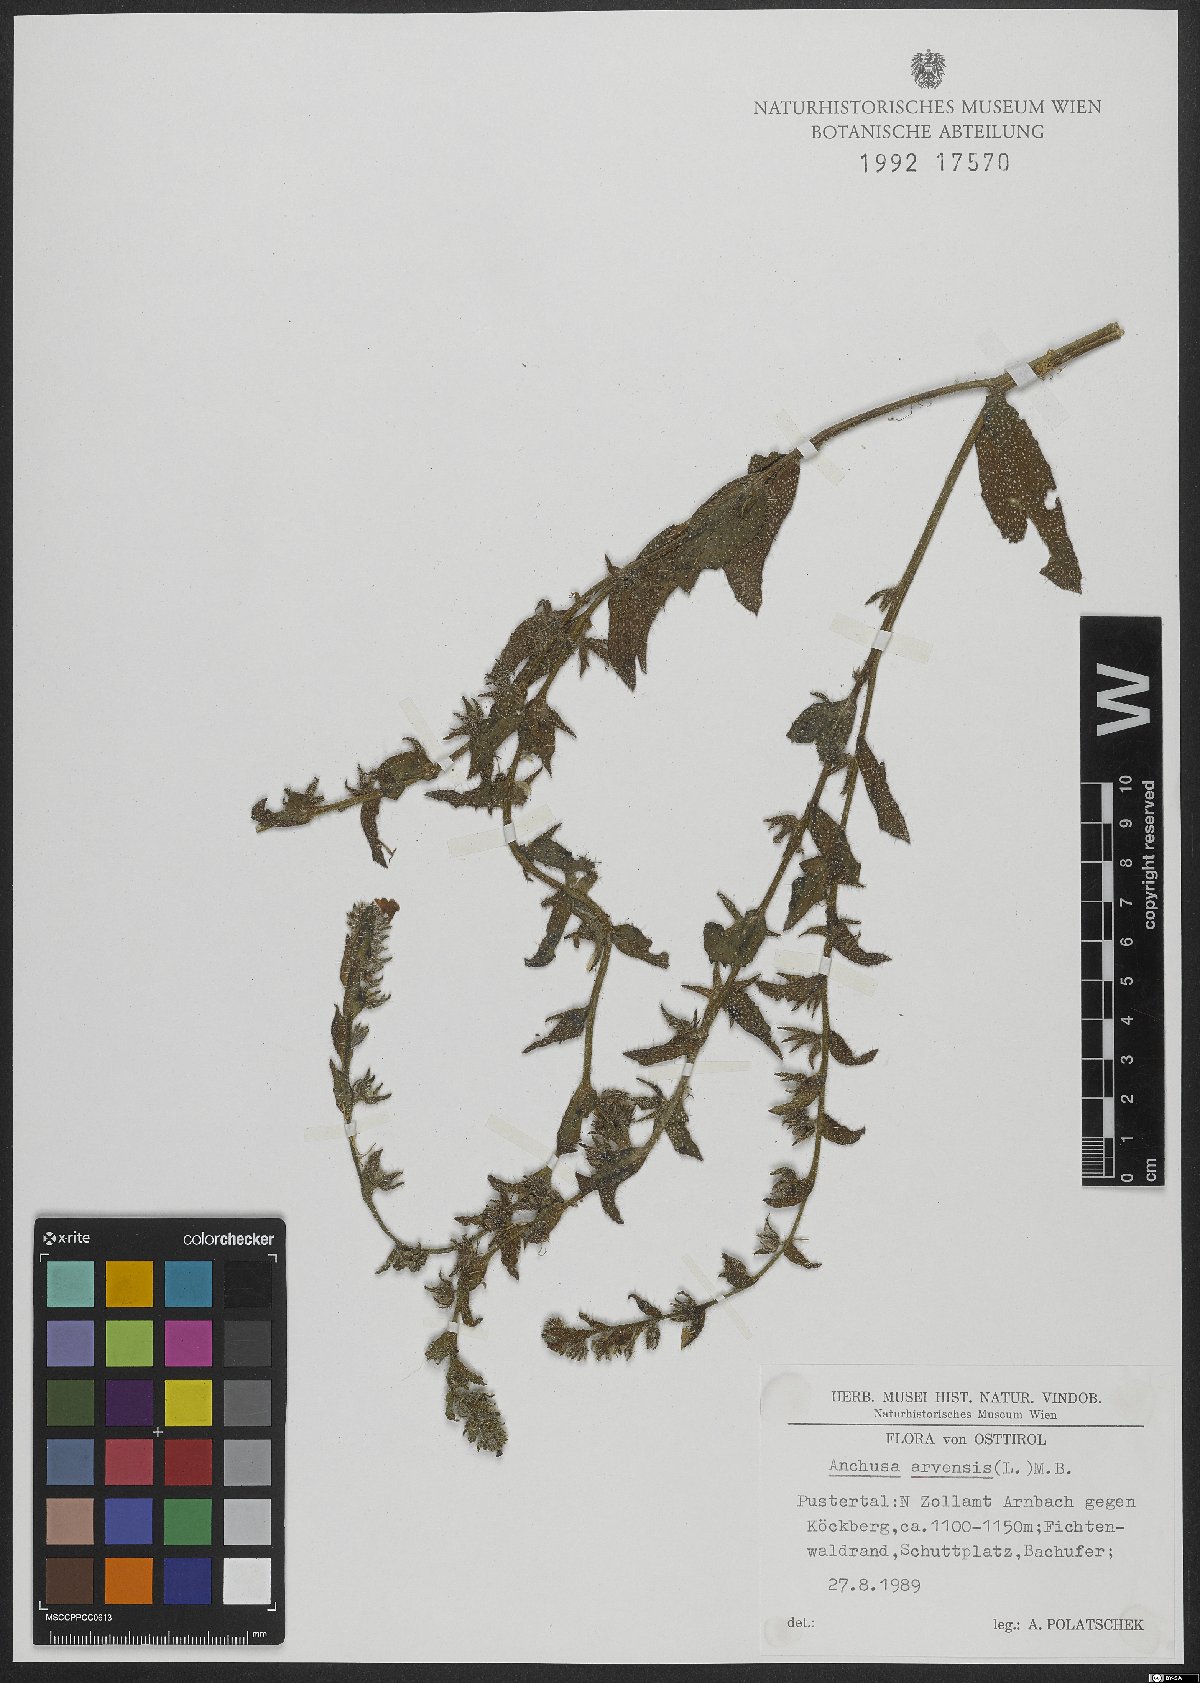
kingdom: Plantae
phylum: Tracheophyta
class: Magnoliopsida
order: Boraginales
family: Boraginaceae
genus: Lycopsis
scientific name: Lycopsis arvensis
